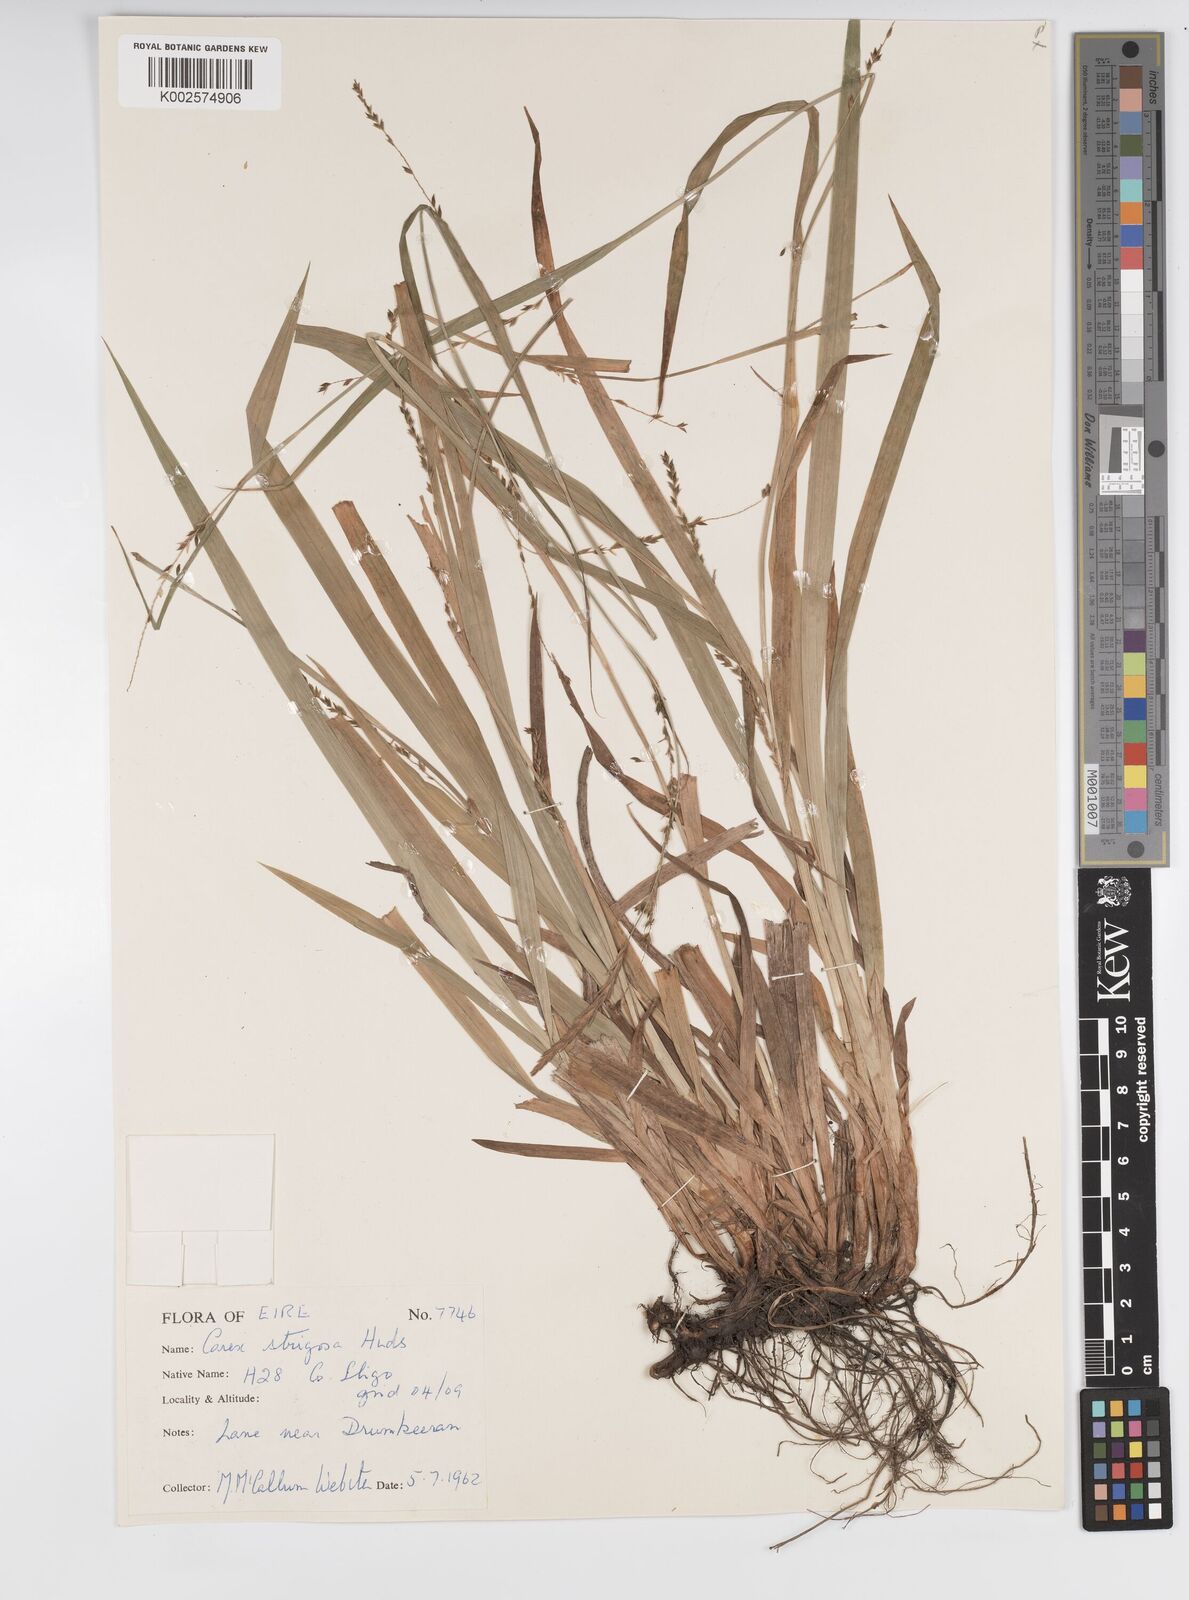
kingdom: Plantae
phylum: Tracheophyta
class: Liliopsida
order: Poales
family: Cyperaceae
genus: Carex
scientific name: Carex strigosa
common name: Thin-spiked wood-sedge
